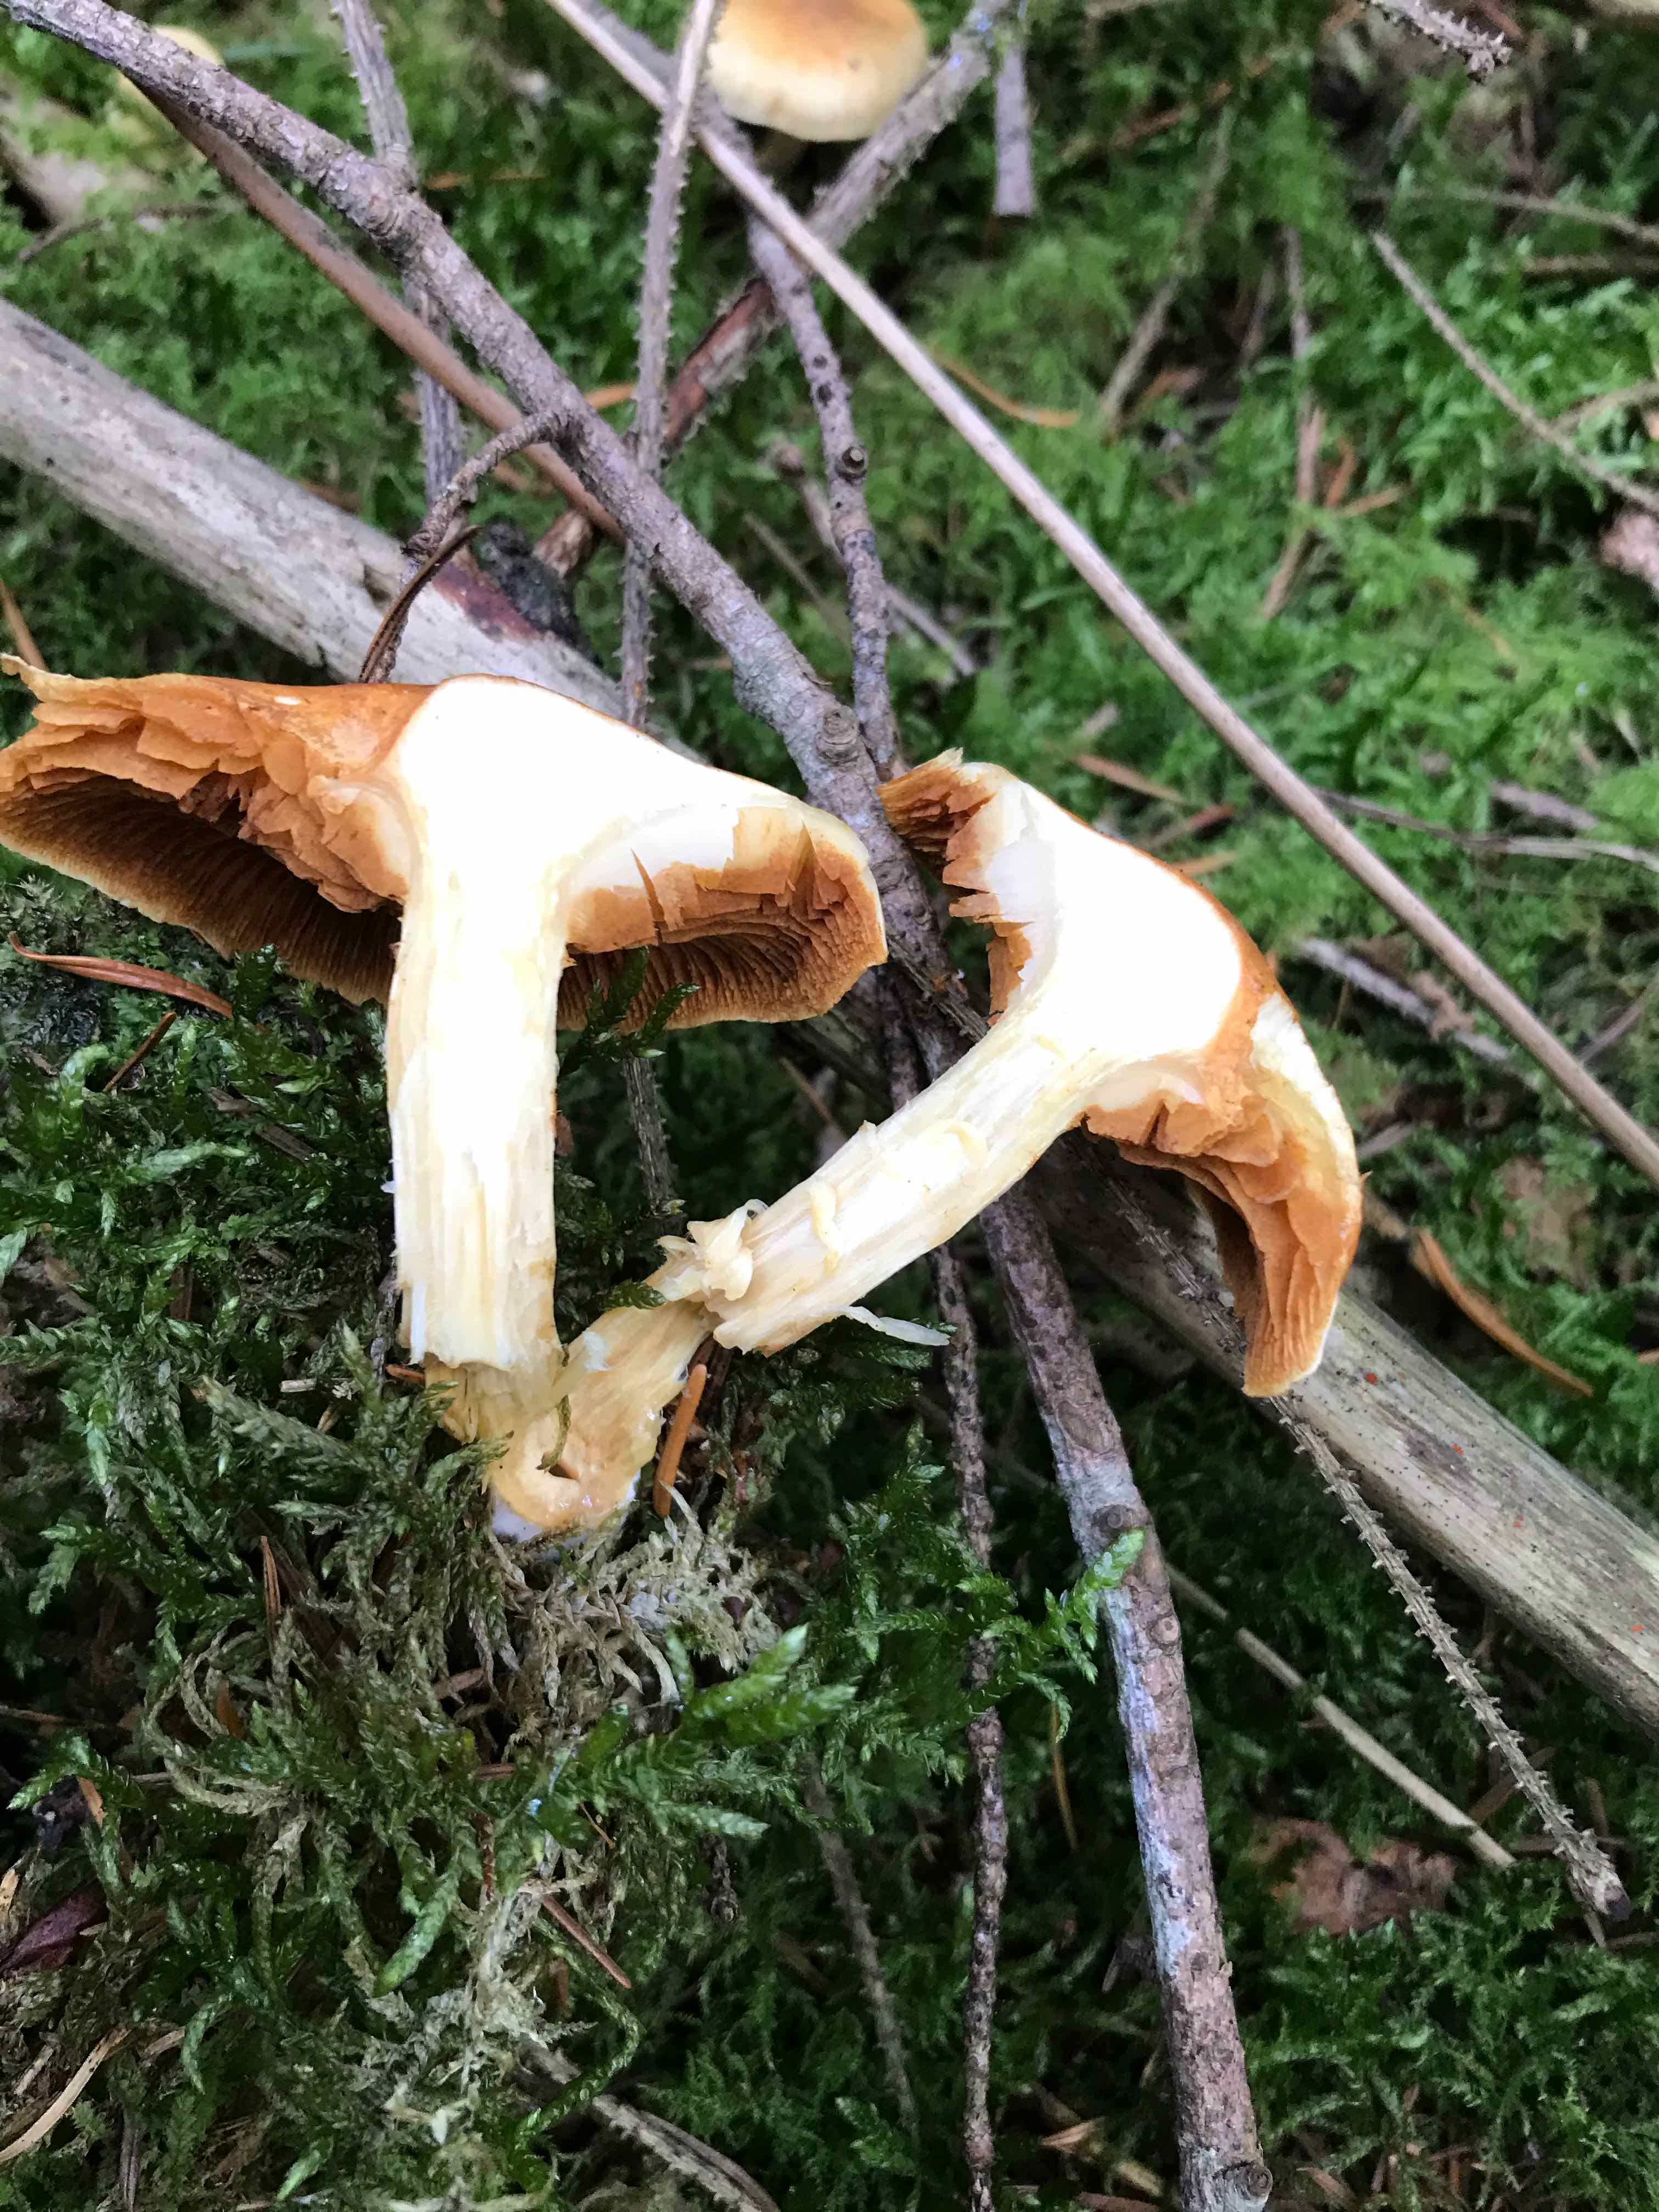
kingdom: Fungi
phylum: Basidiomycota
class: Agaricomycetes
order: Agaricales
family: Hymenogastraceae
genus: Gymnopilus
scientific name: Gymnopilus penetrans
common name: plettet flammehat
